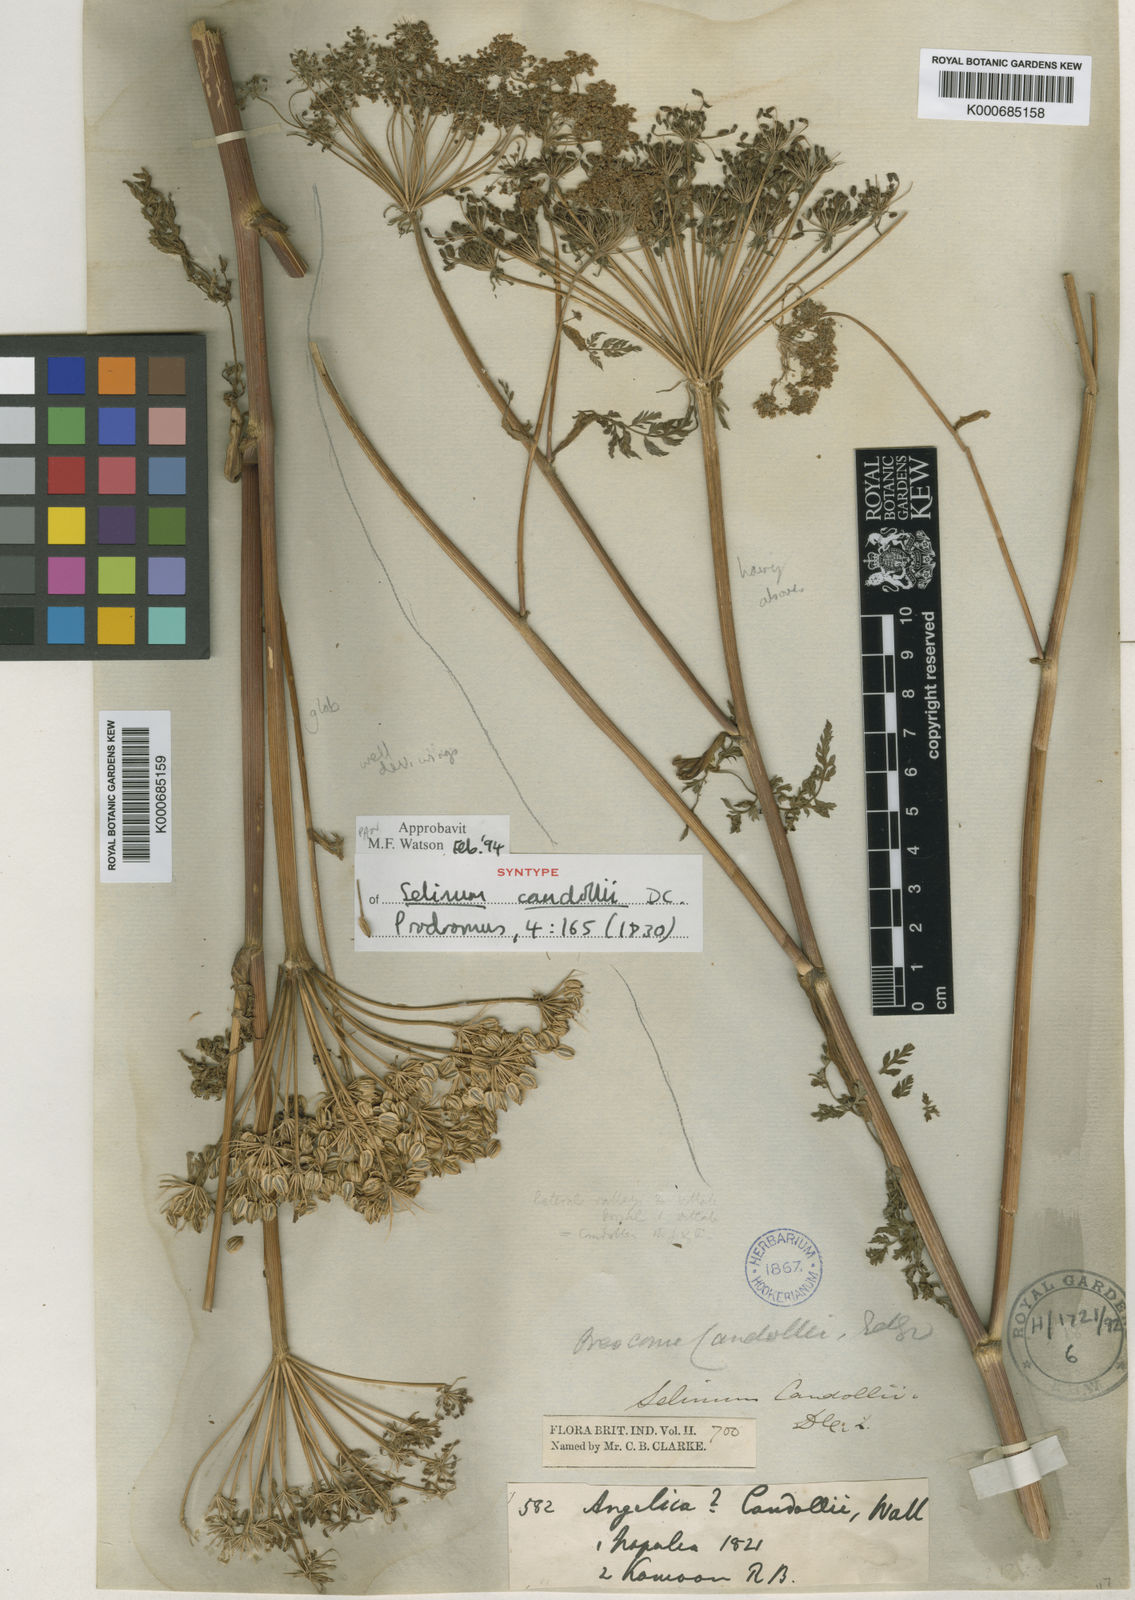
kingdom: Plantae
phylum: Tracheophyta
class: Magnoliopsida
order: Apiales
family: Apiaceae
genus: Oreocome
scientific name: Oreocome candollei
